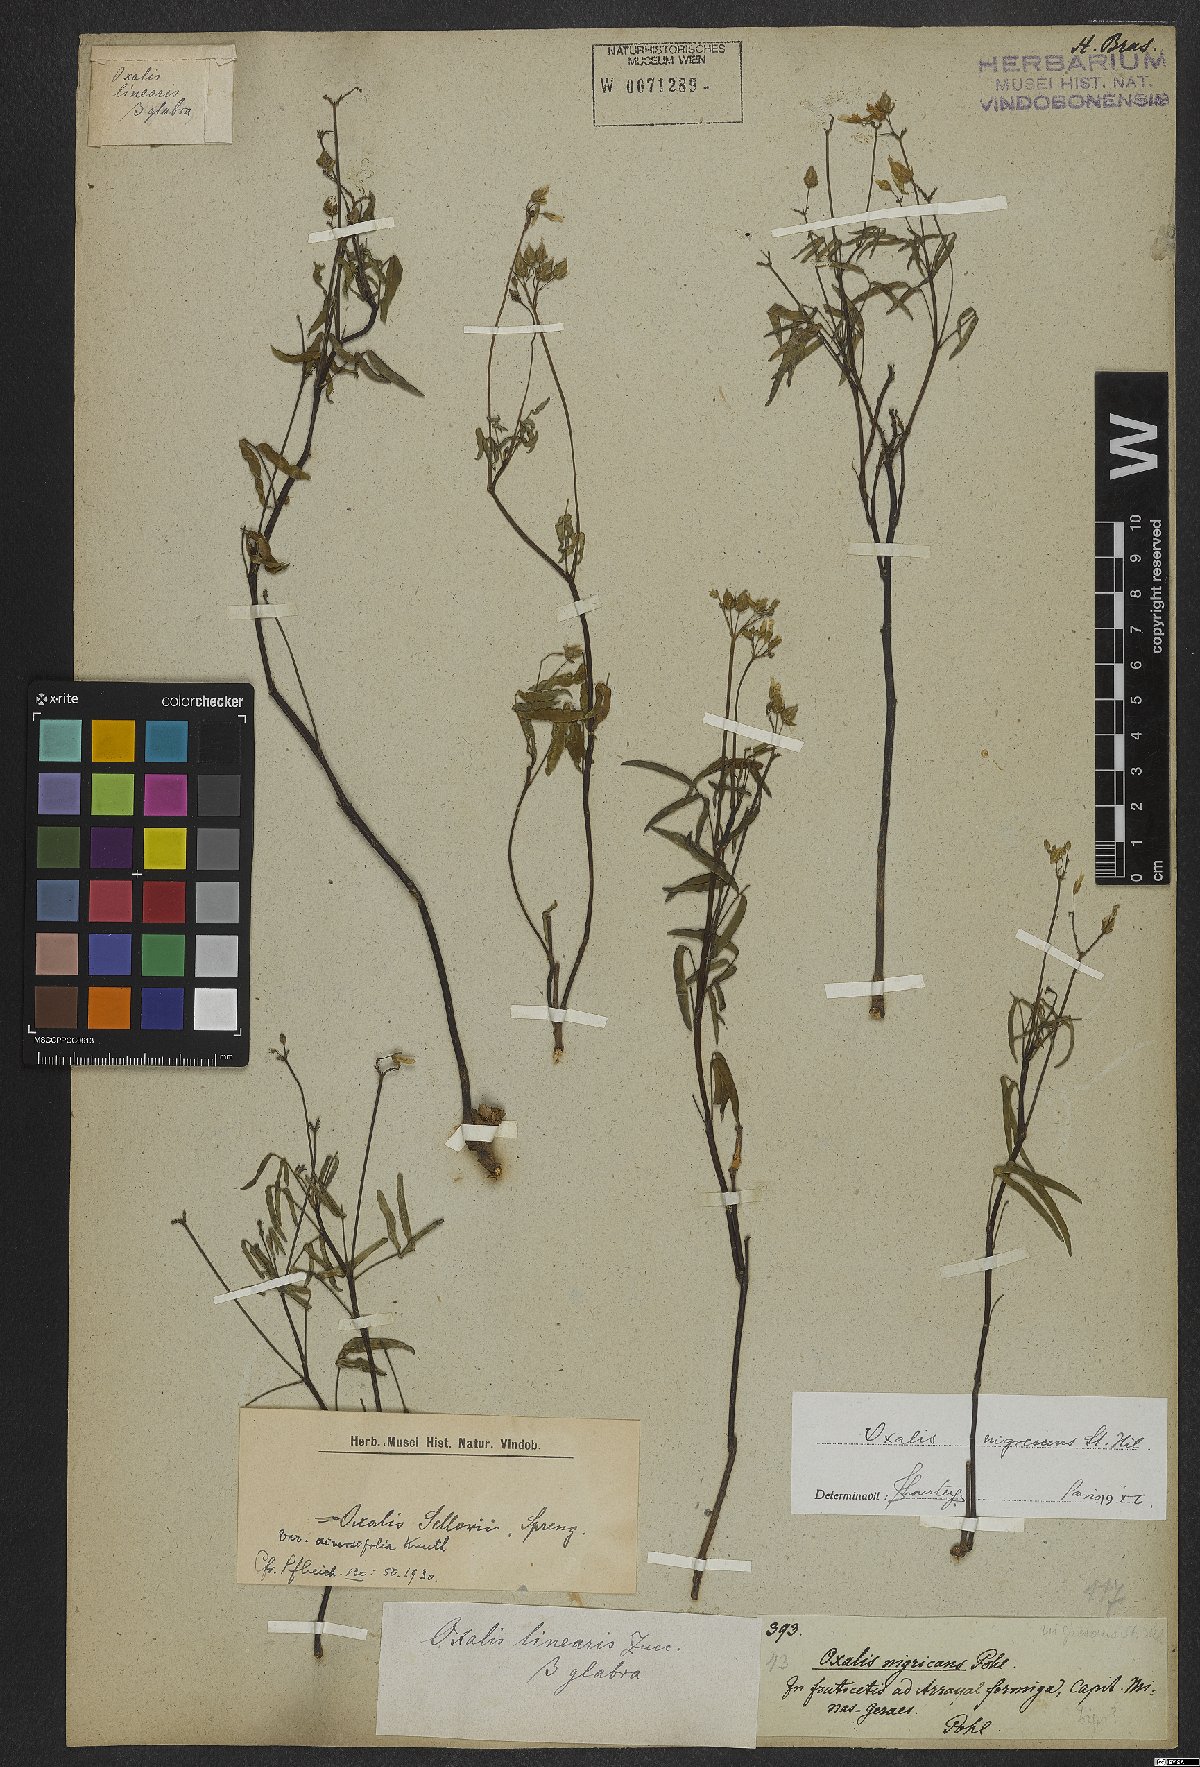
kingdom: Plantae
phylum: Tracheophyta
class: Magnoliopsida
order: Oxalidales
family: Oxalidaceae
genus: Oxalis
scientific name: Oxalis nigrescens
